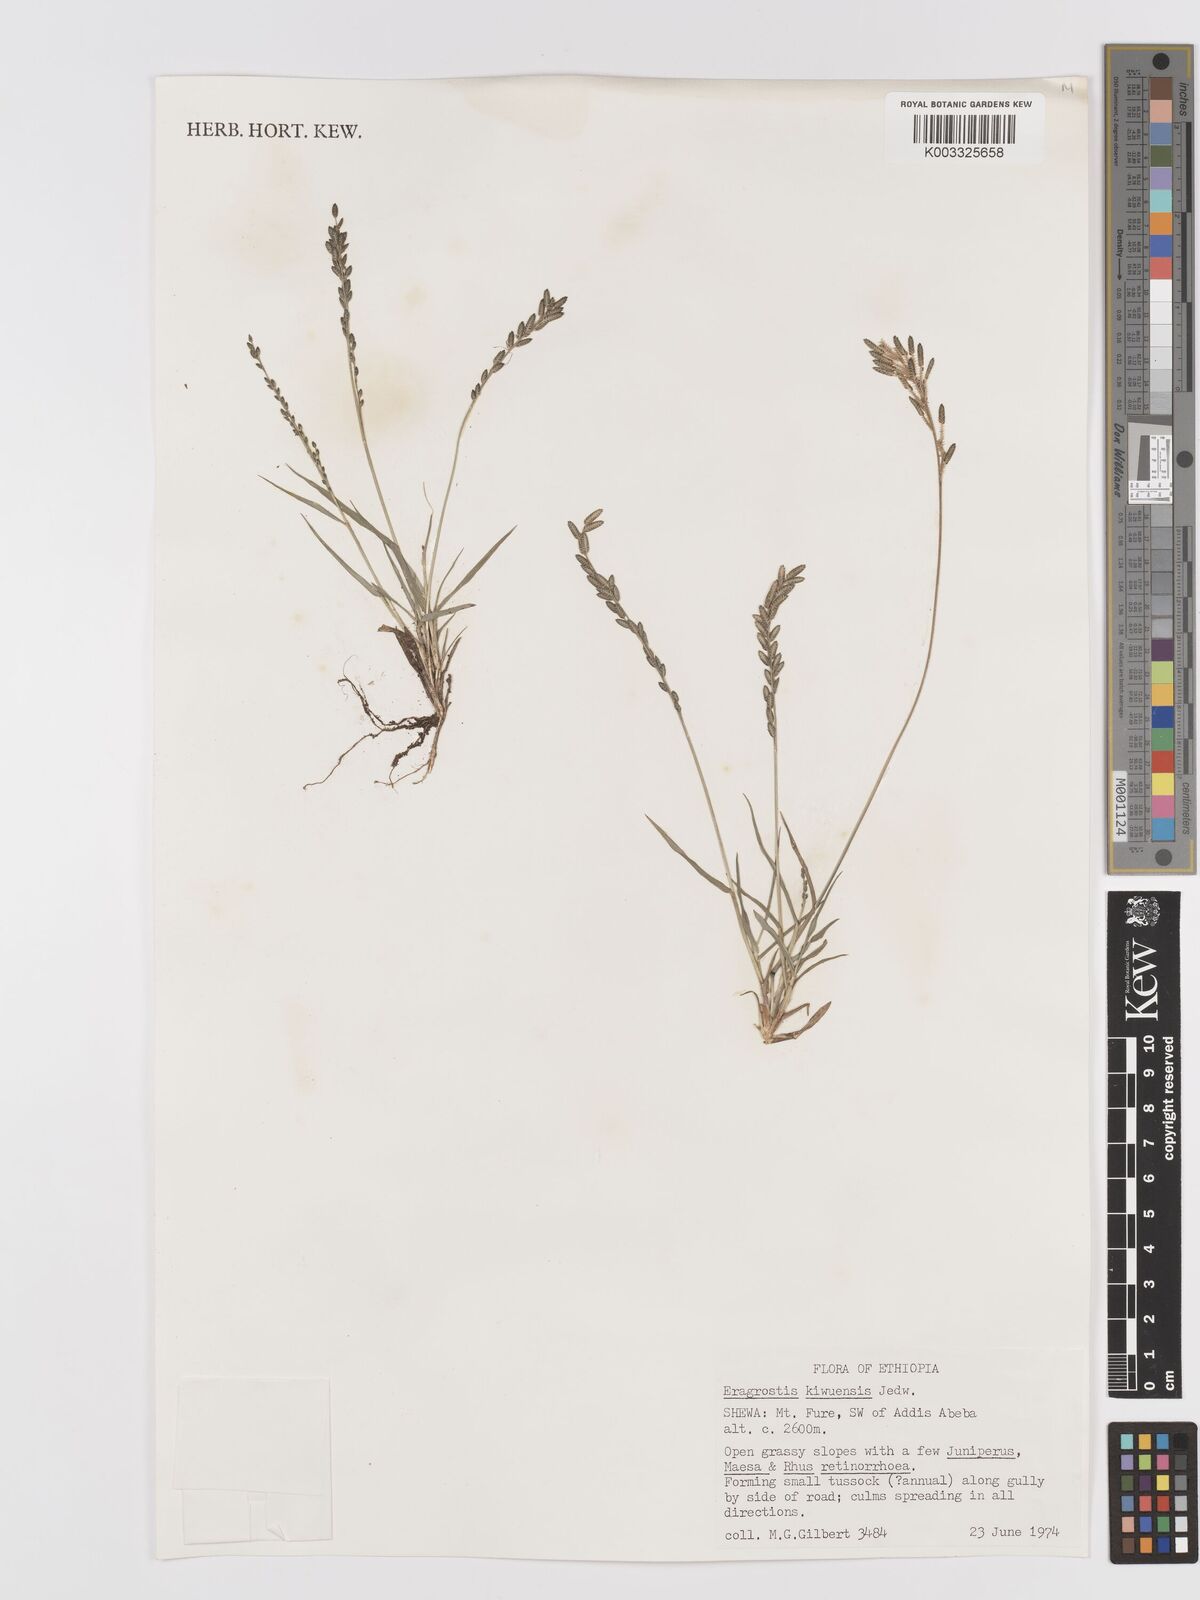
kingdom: Plantae
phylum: Tracheophyta
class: Liliopsida
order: Poales
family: Poaceae
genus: Eragrostis
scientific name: Eragrostis schweinfurthii
